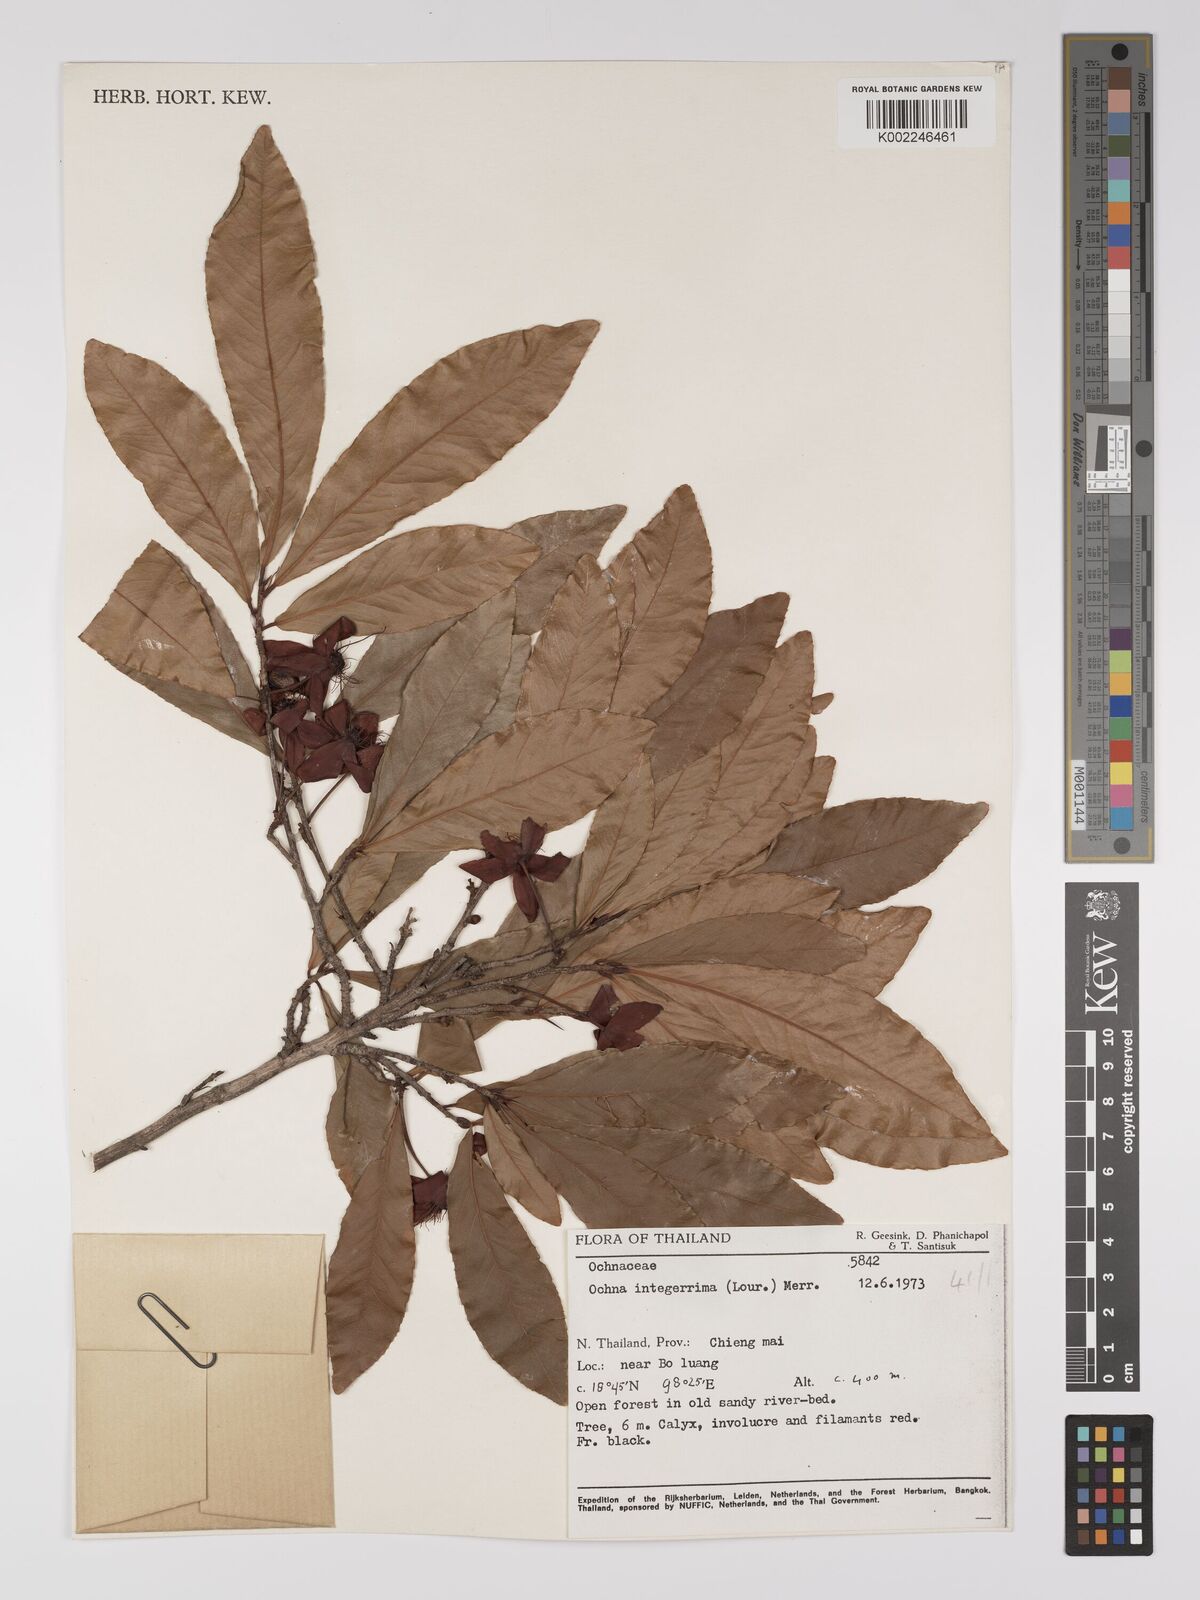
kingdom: Plantae
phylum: Tracheophyta
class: Magnoliopsida
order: Malpighiales
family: Ochnaceae
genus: Ochna
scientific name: Ochna integerrima
